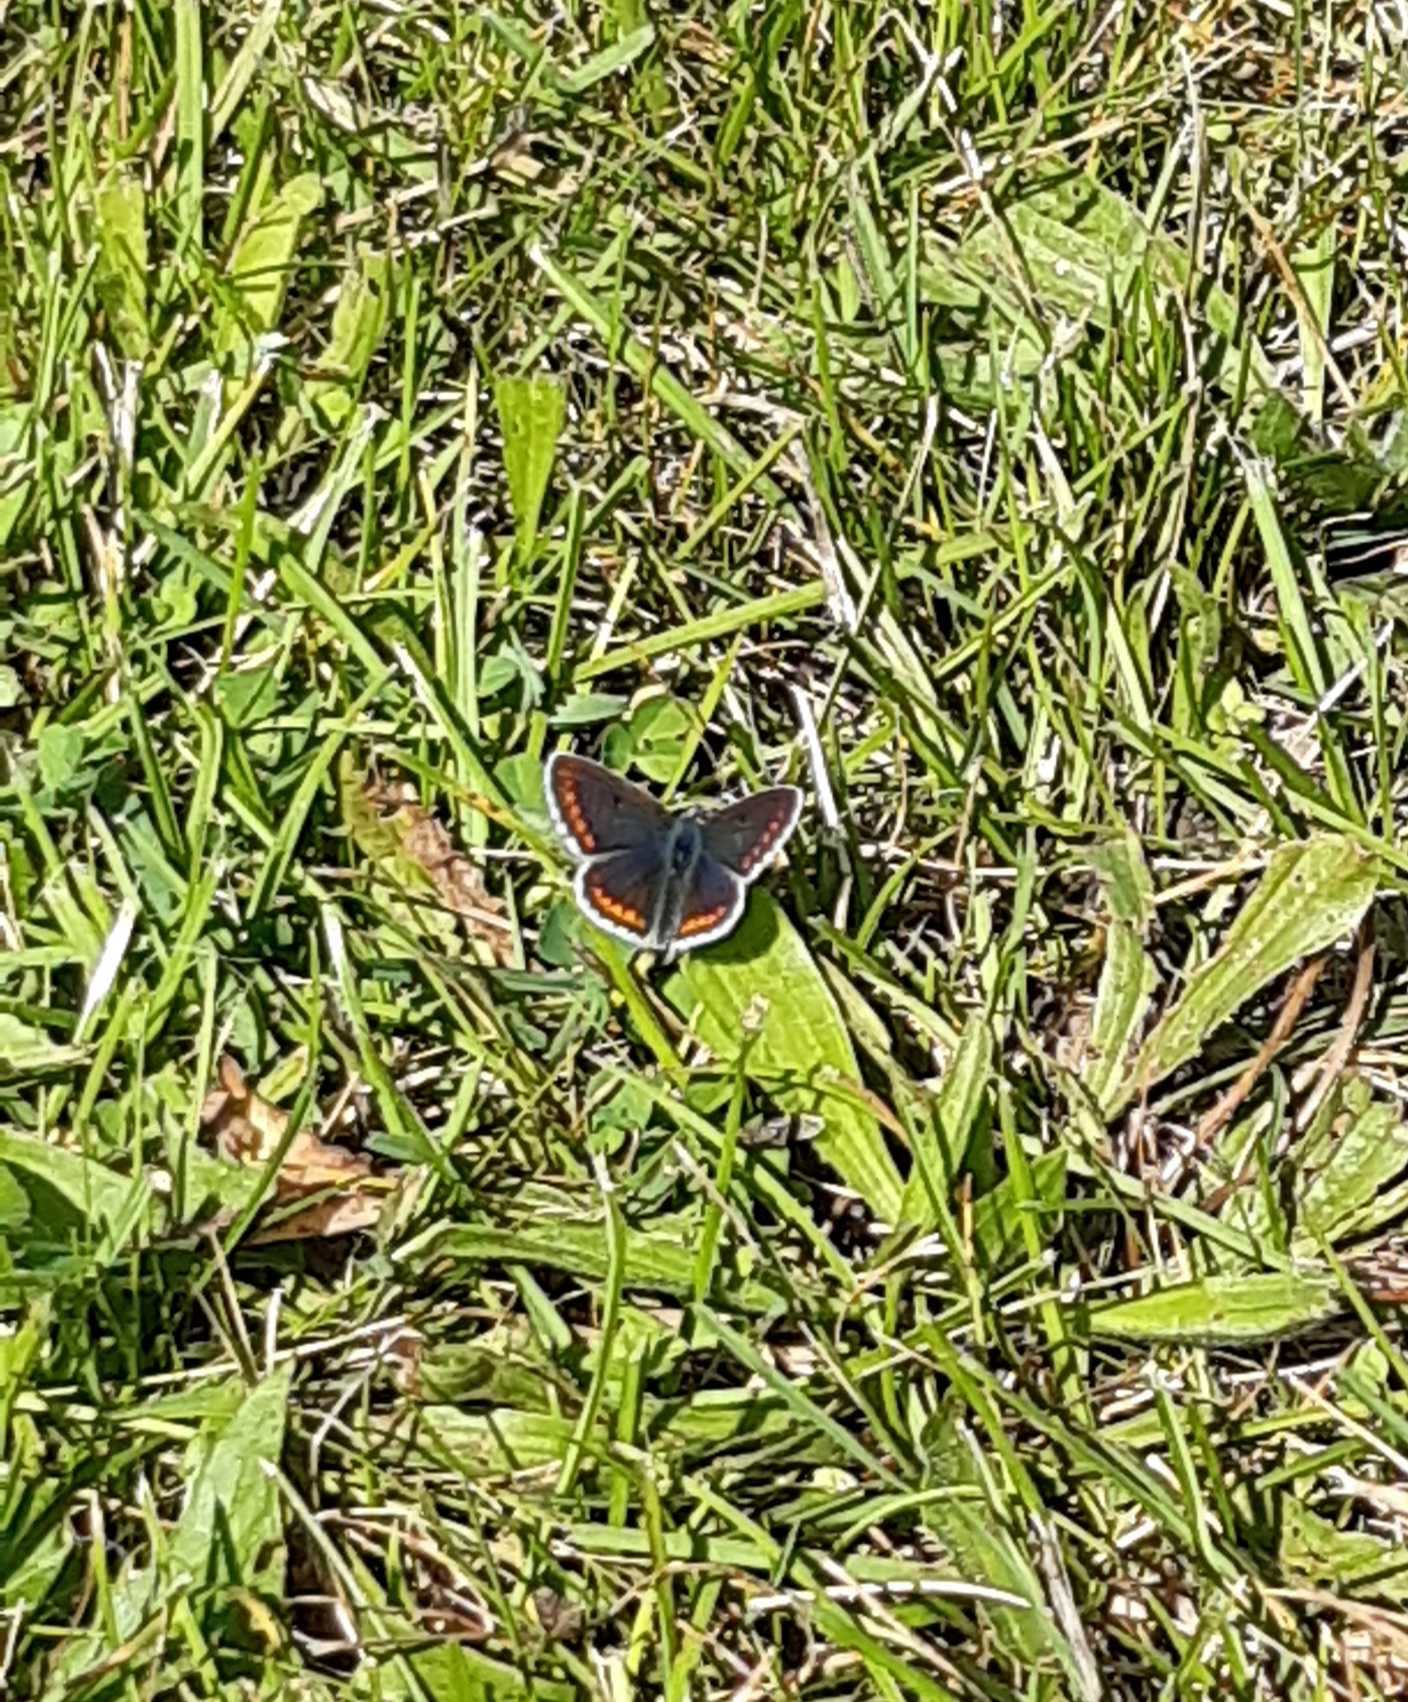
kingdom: Animalia
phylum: Arthropoda
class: Insecta
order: Lepidoptera
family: Lycaenidae
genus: Aricia
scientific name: Aricia agestis
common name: Rødplettet blåfugl
